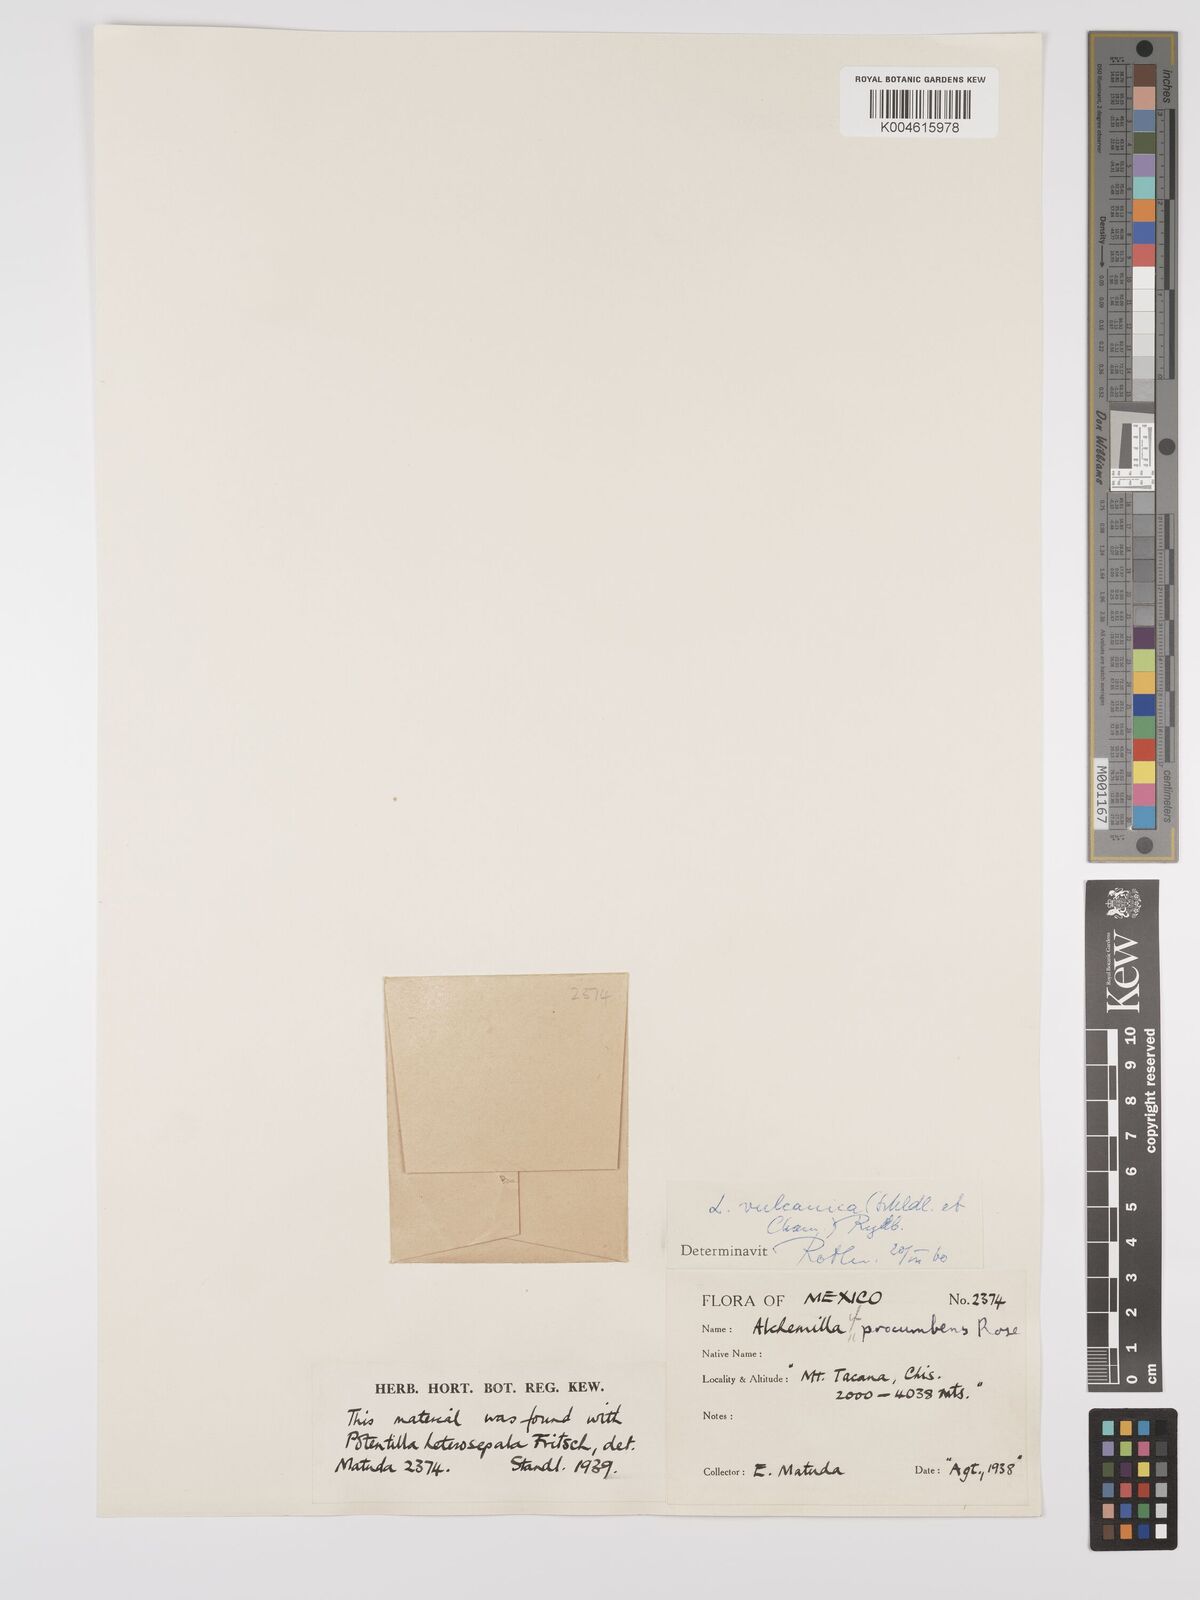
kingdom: Plantae
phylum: Tracheophyta
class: Magnoliopsida
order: Rosales
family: Rosaceae
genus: Alchemilla
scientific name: Alchemilla
